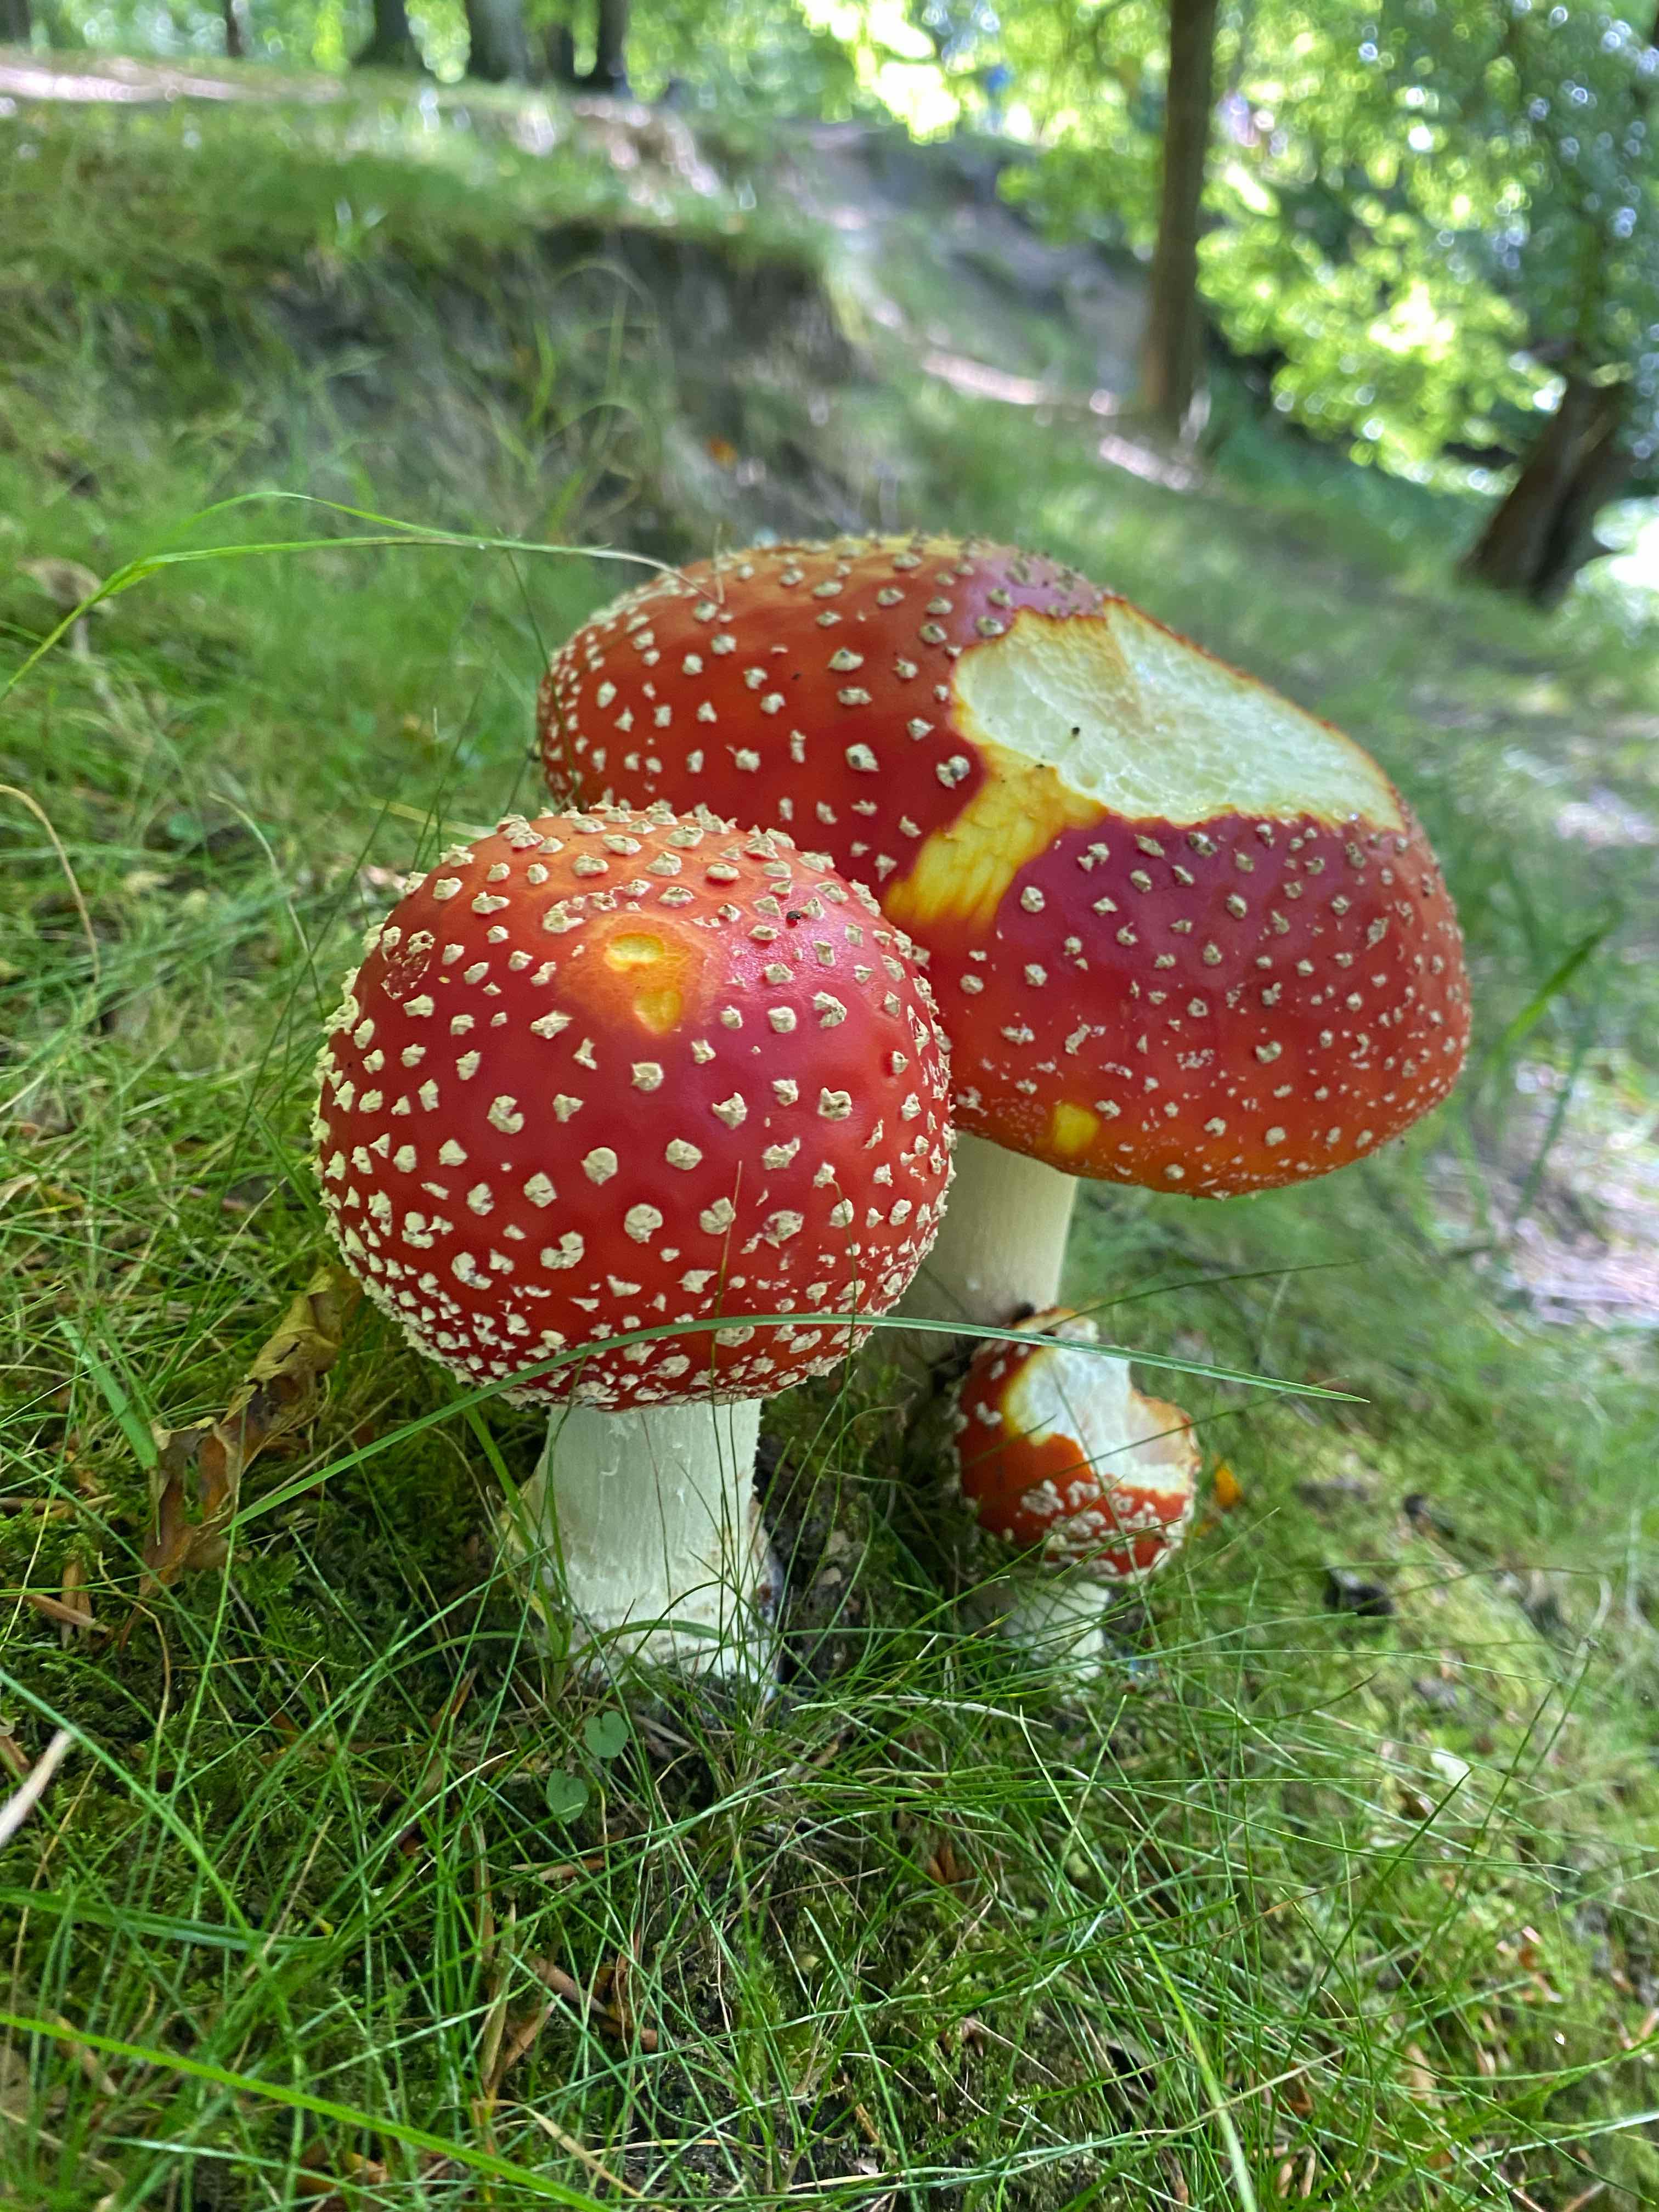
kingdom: Fungi
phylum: Basidiomycota
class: Agaricomycetes
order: Agaricales
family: Amanitaceae
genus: Amanita
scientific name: Amanita muscaria
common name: rød fluesvamp
